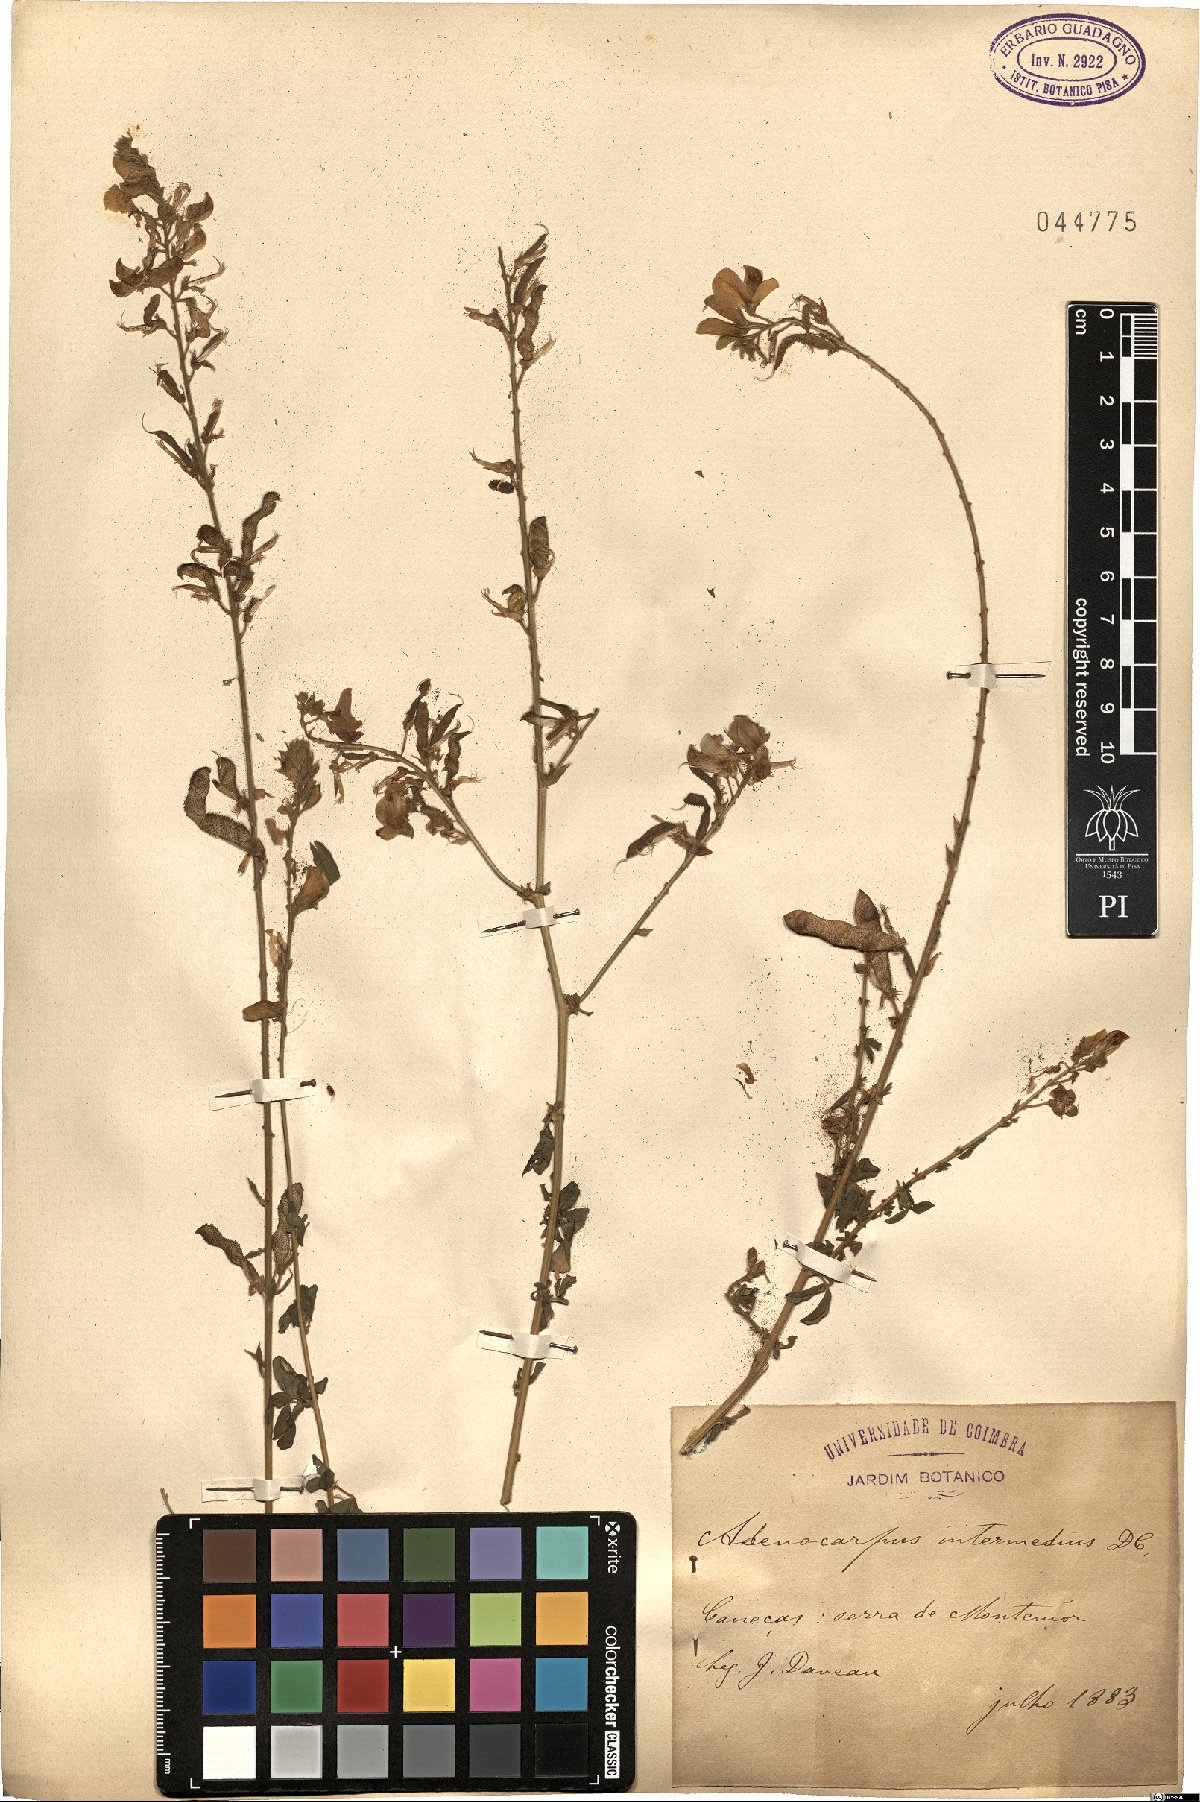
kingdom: Plantae
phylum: Tracheophyta
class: Magnoliopsida
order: Fabales
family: Fabaceae
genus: Adenocarpus
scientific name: Adenocarpus complicatus
